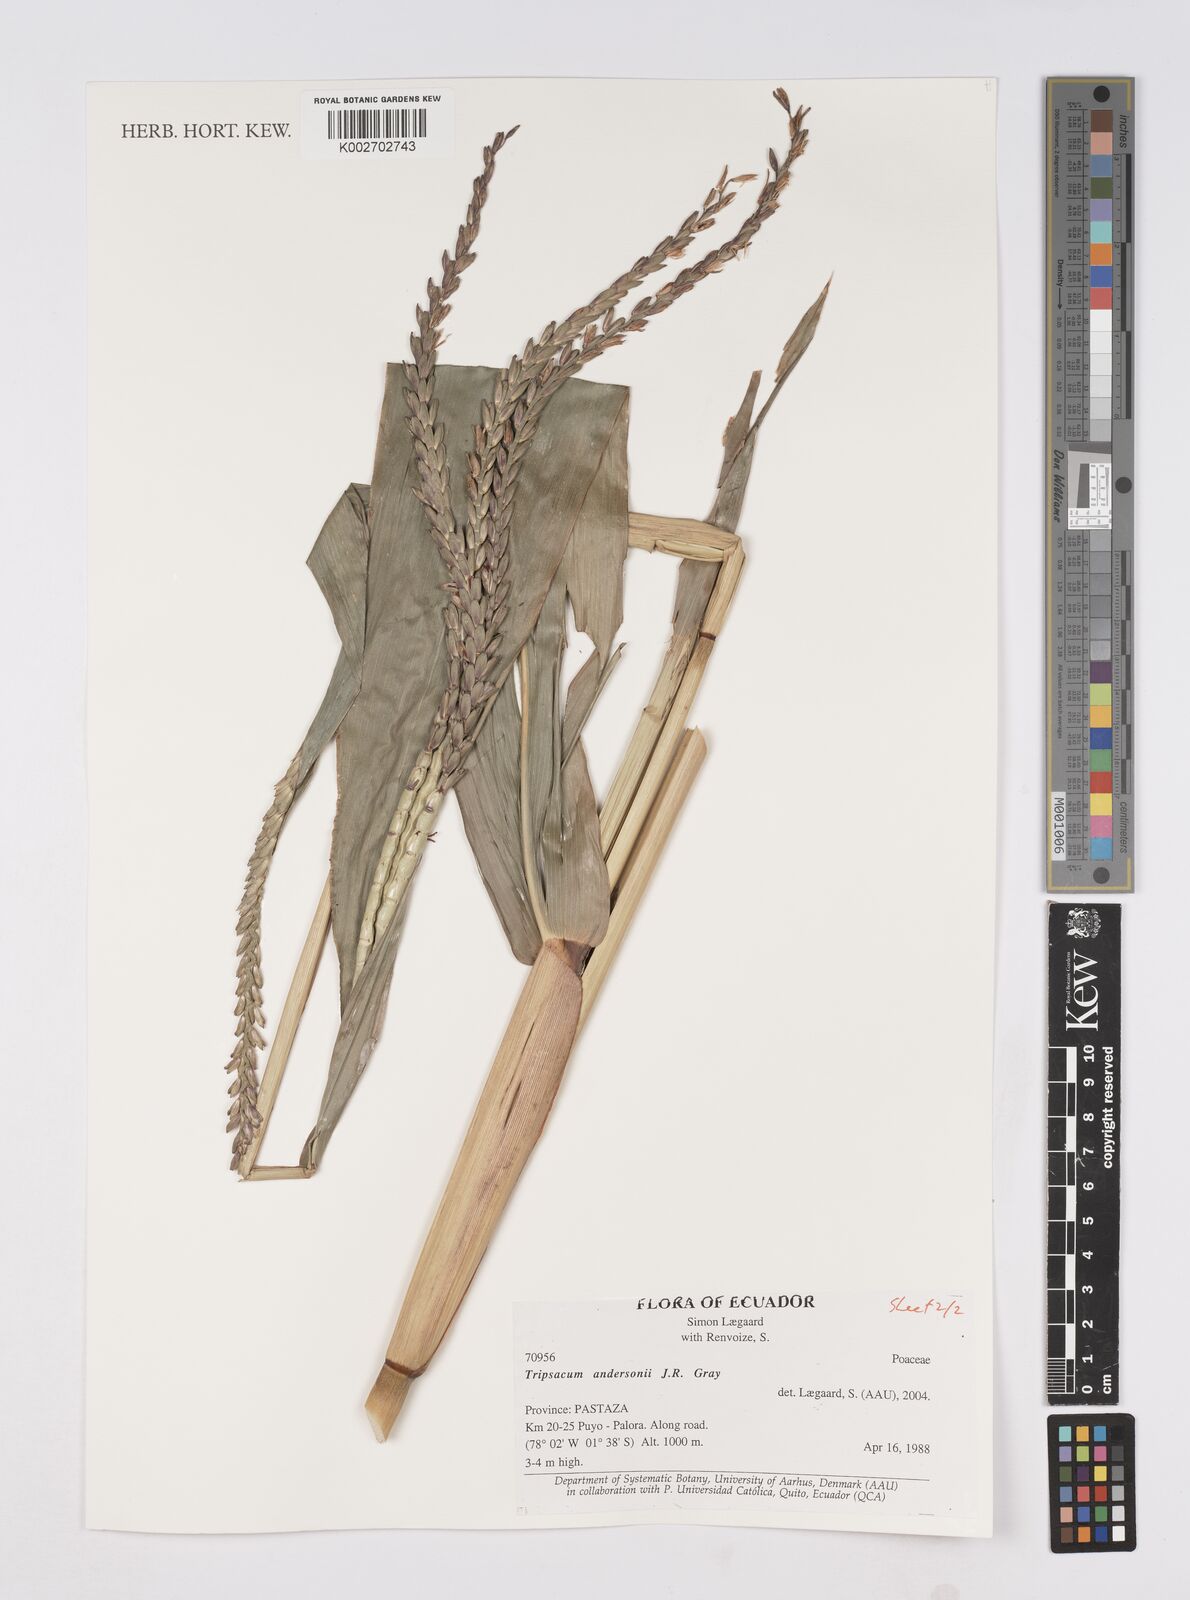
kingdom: Plantae
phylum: Tracheophyta
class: Liliopsida
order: Poales
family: Poaceae
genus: Tripsacum
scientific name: Tripsacum andersonii
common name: Guatemalan grass
